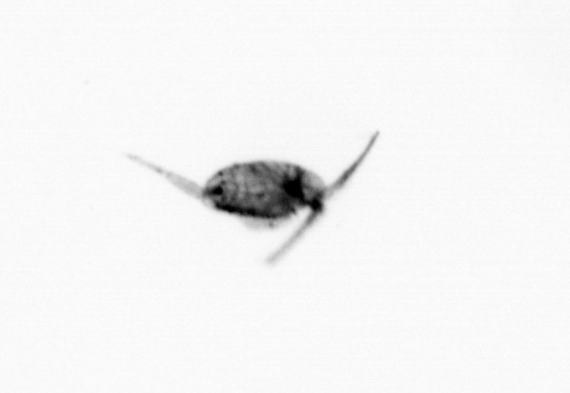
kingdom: Animalia
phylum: Arthropoda
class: Copepoda
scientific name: Copepoda
